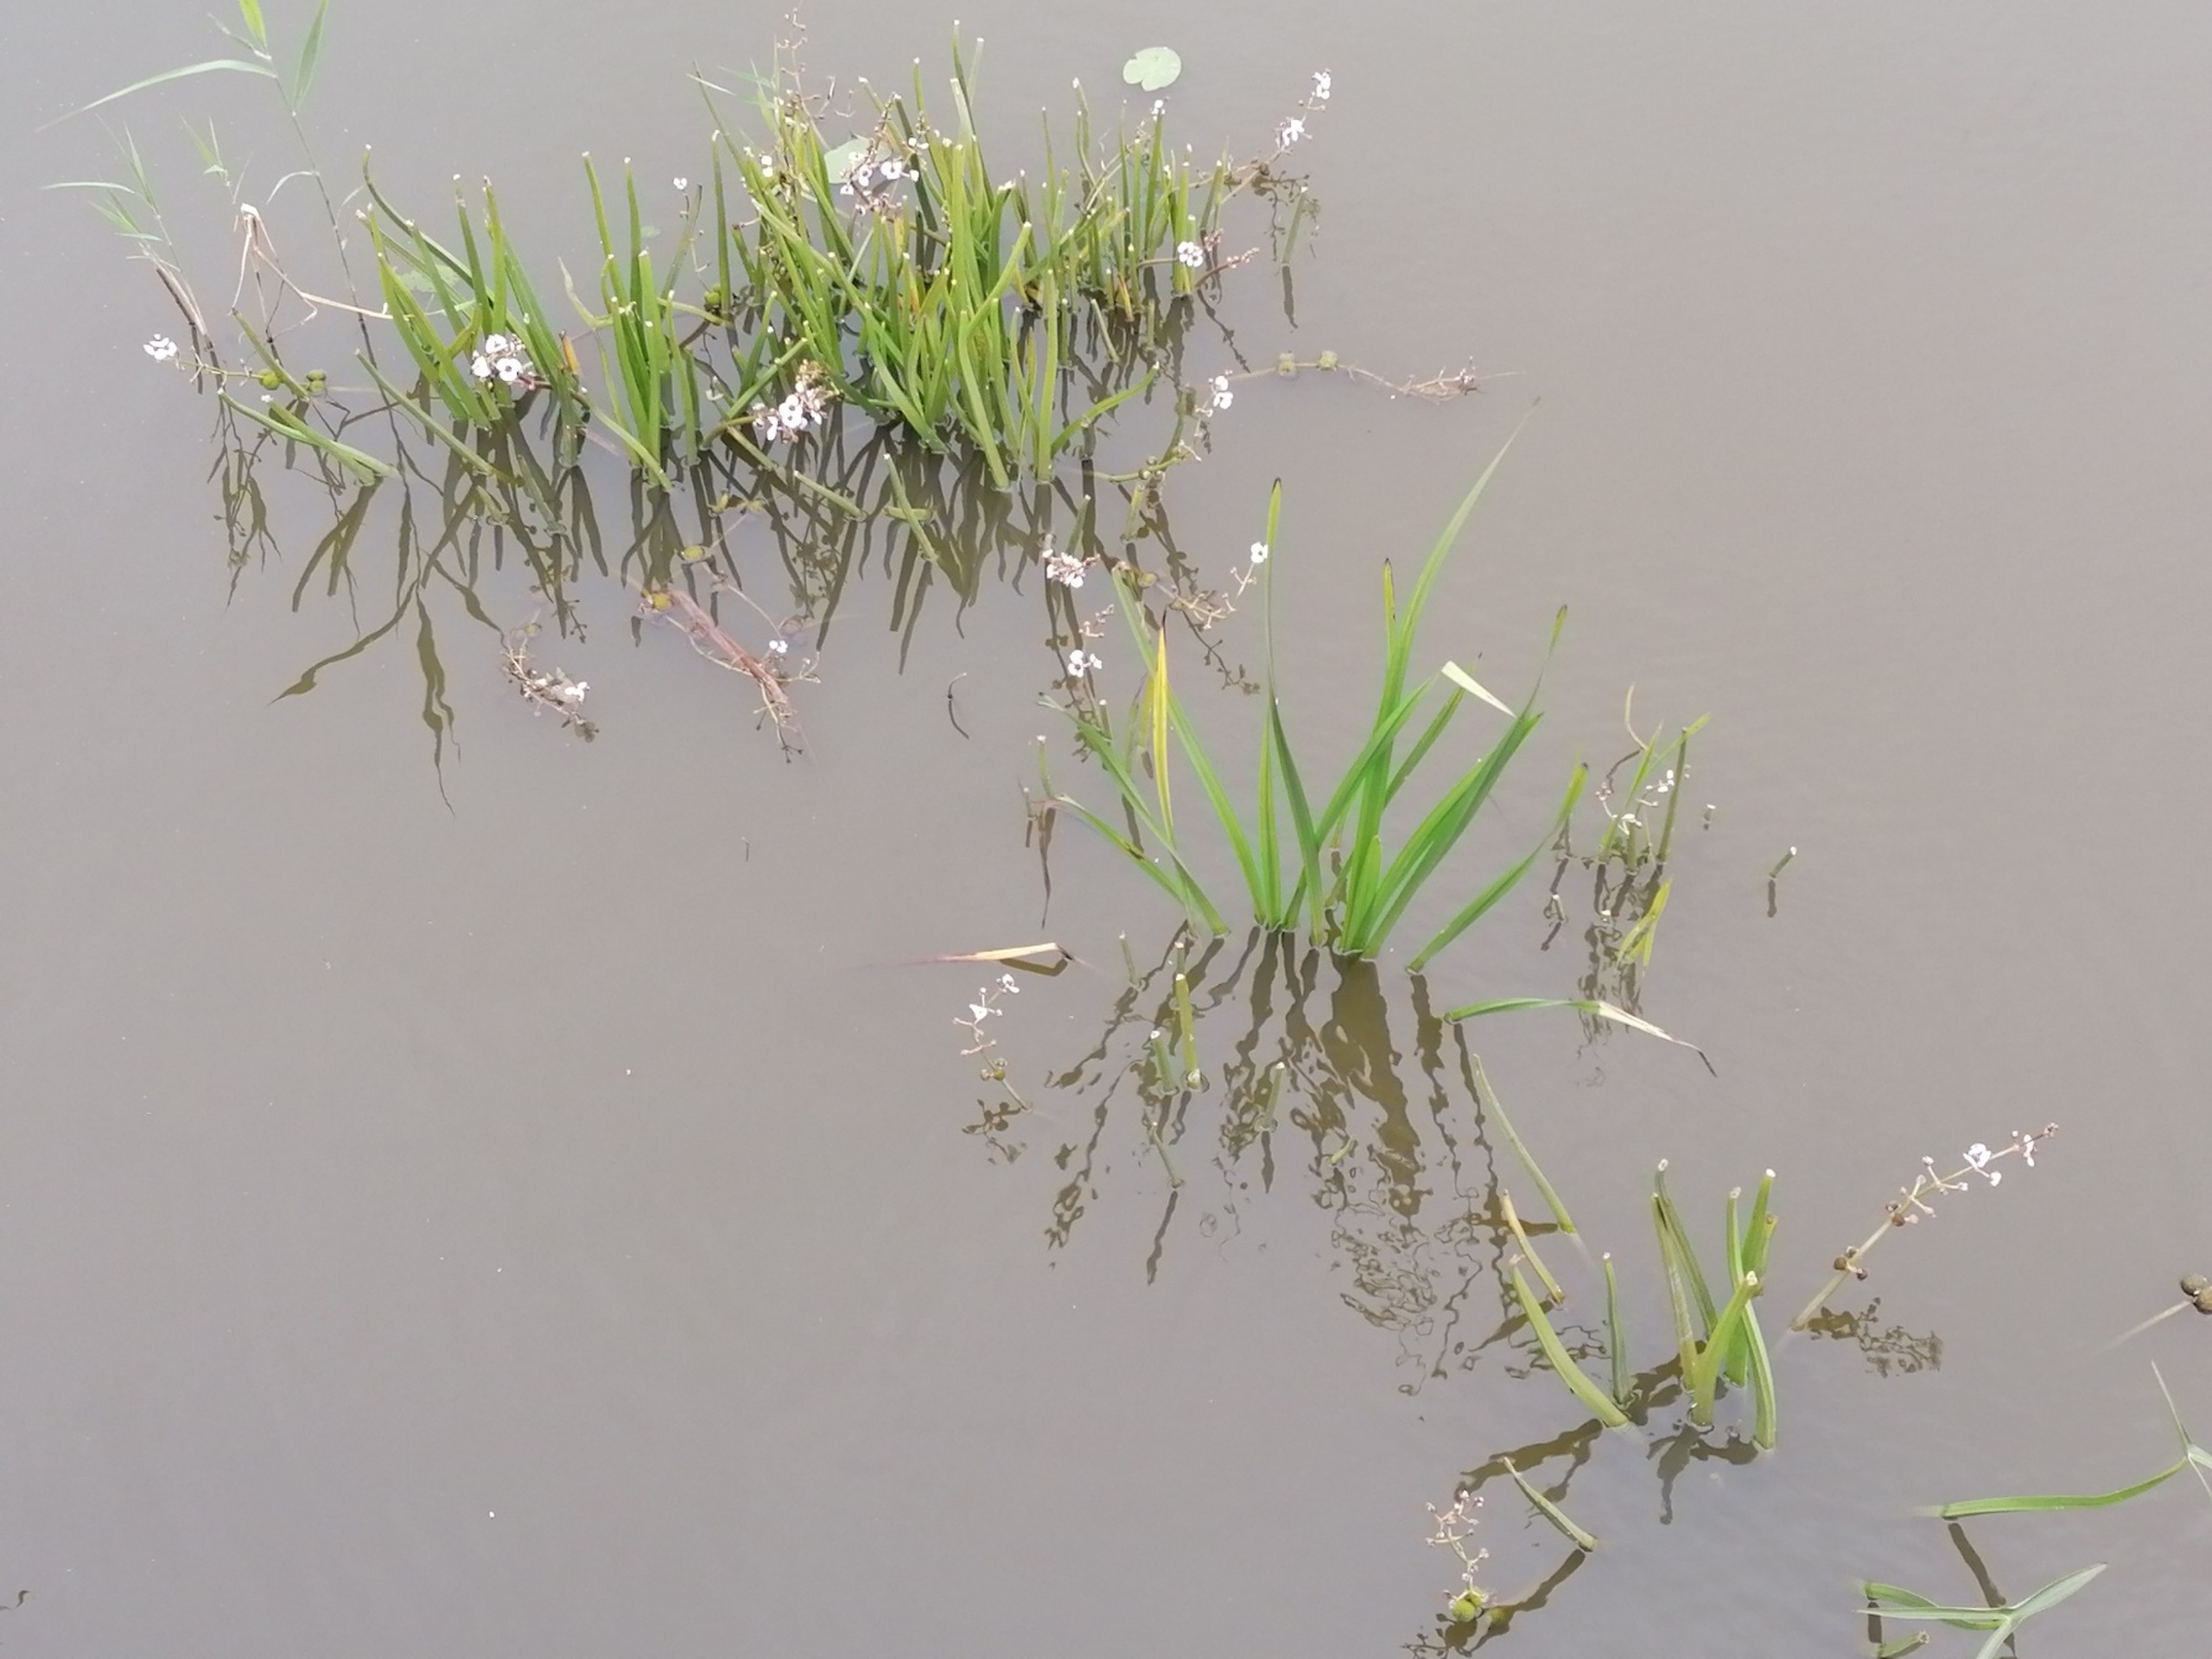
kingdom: Plantae
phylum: Tracheophyta
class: Liliopsida
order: Alismatales
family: Alismataceae
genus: Sagittaria
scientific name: Sagittaria sagittifolia
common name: Pilblad
